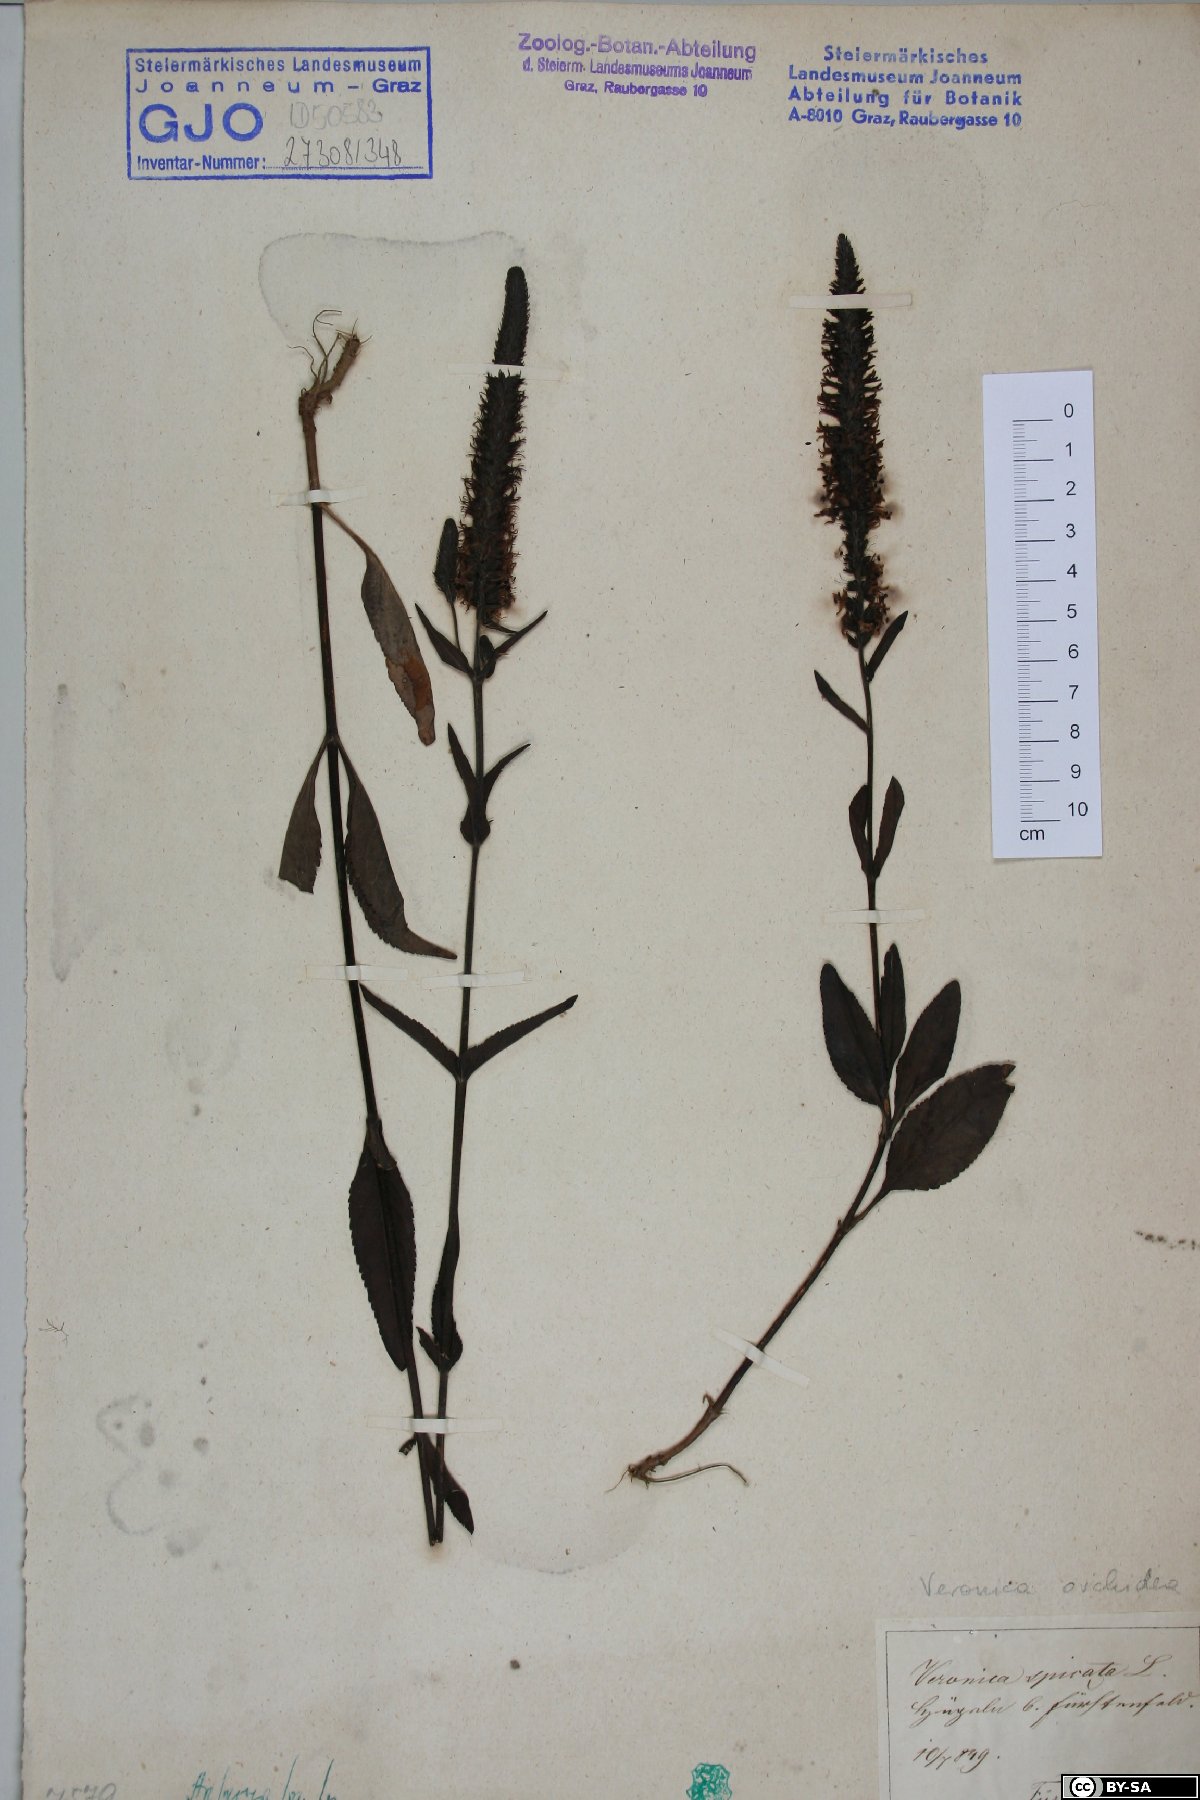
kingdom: Plantae
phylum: Tracheophyta
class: Magnoliopsida
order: Lamiales
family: Plantaginaceae
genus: Veronica
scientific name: Veronica spicata
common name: Spiked speedwell
